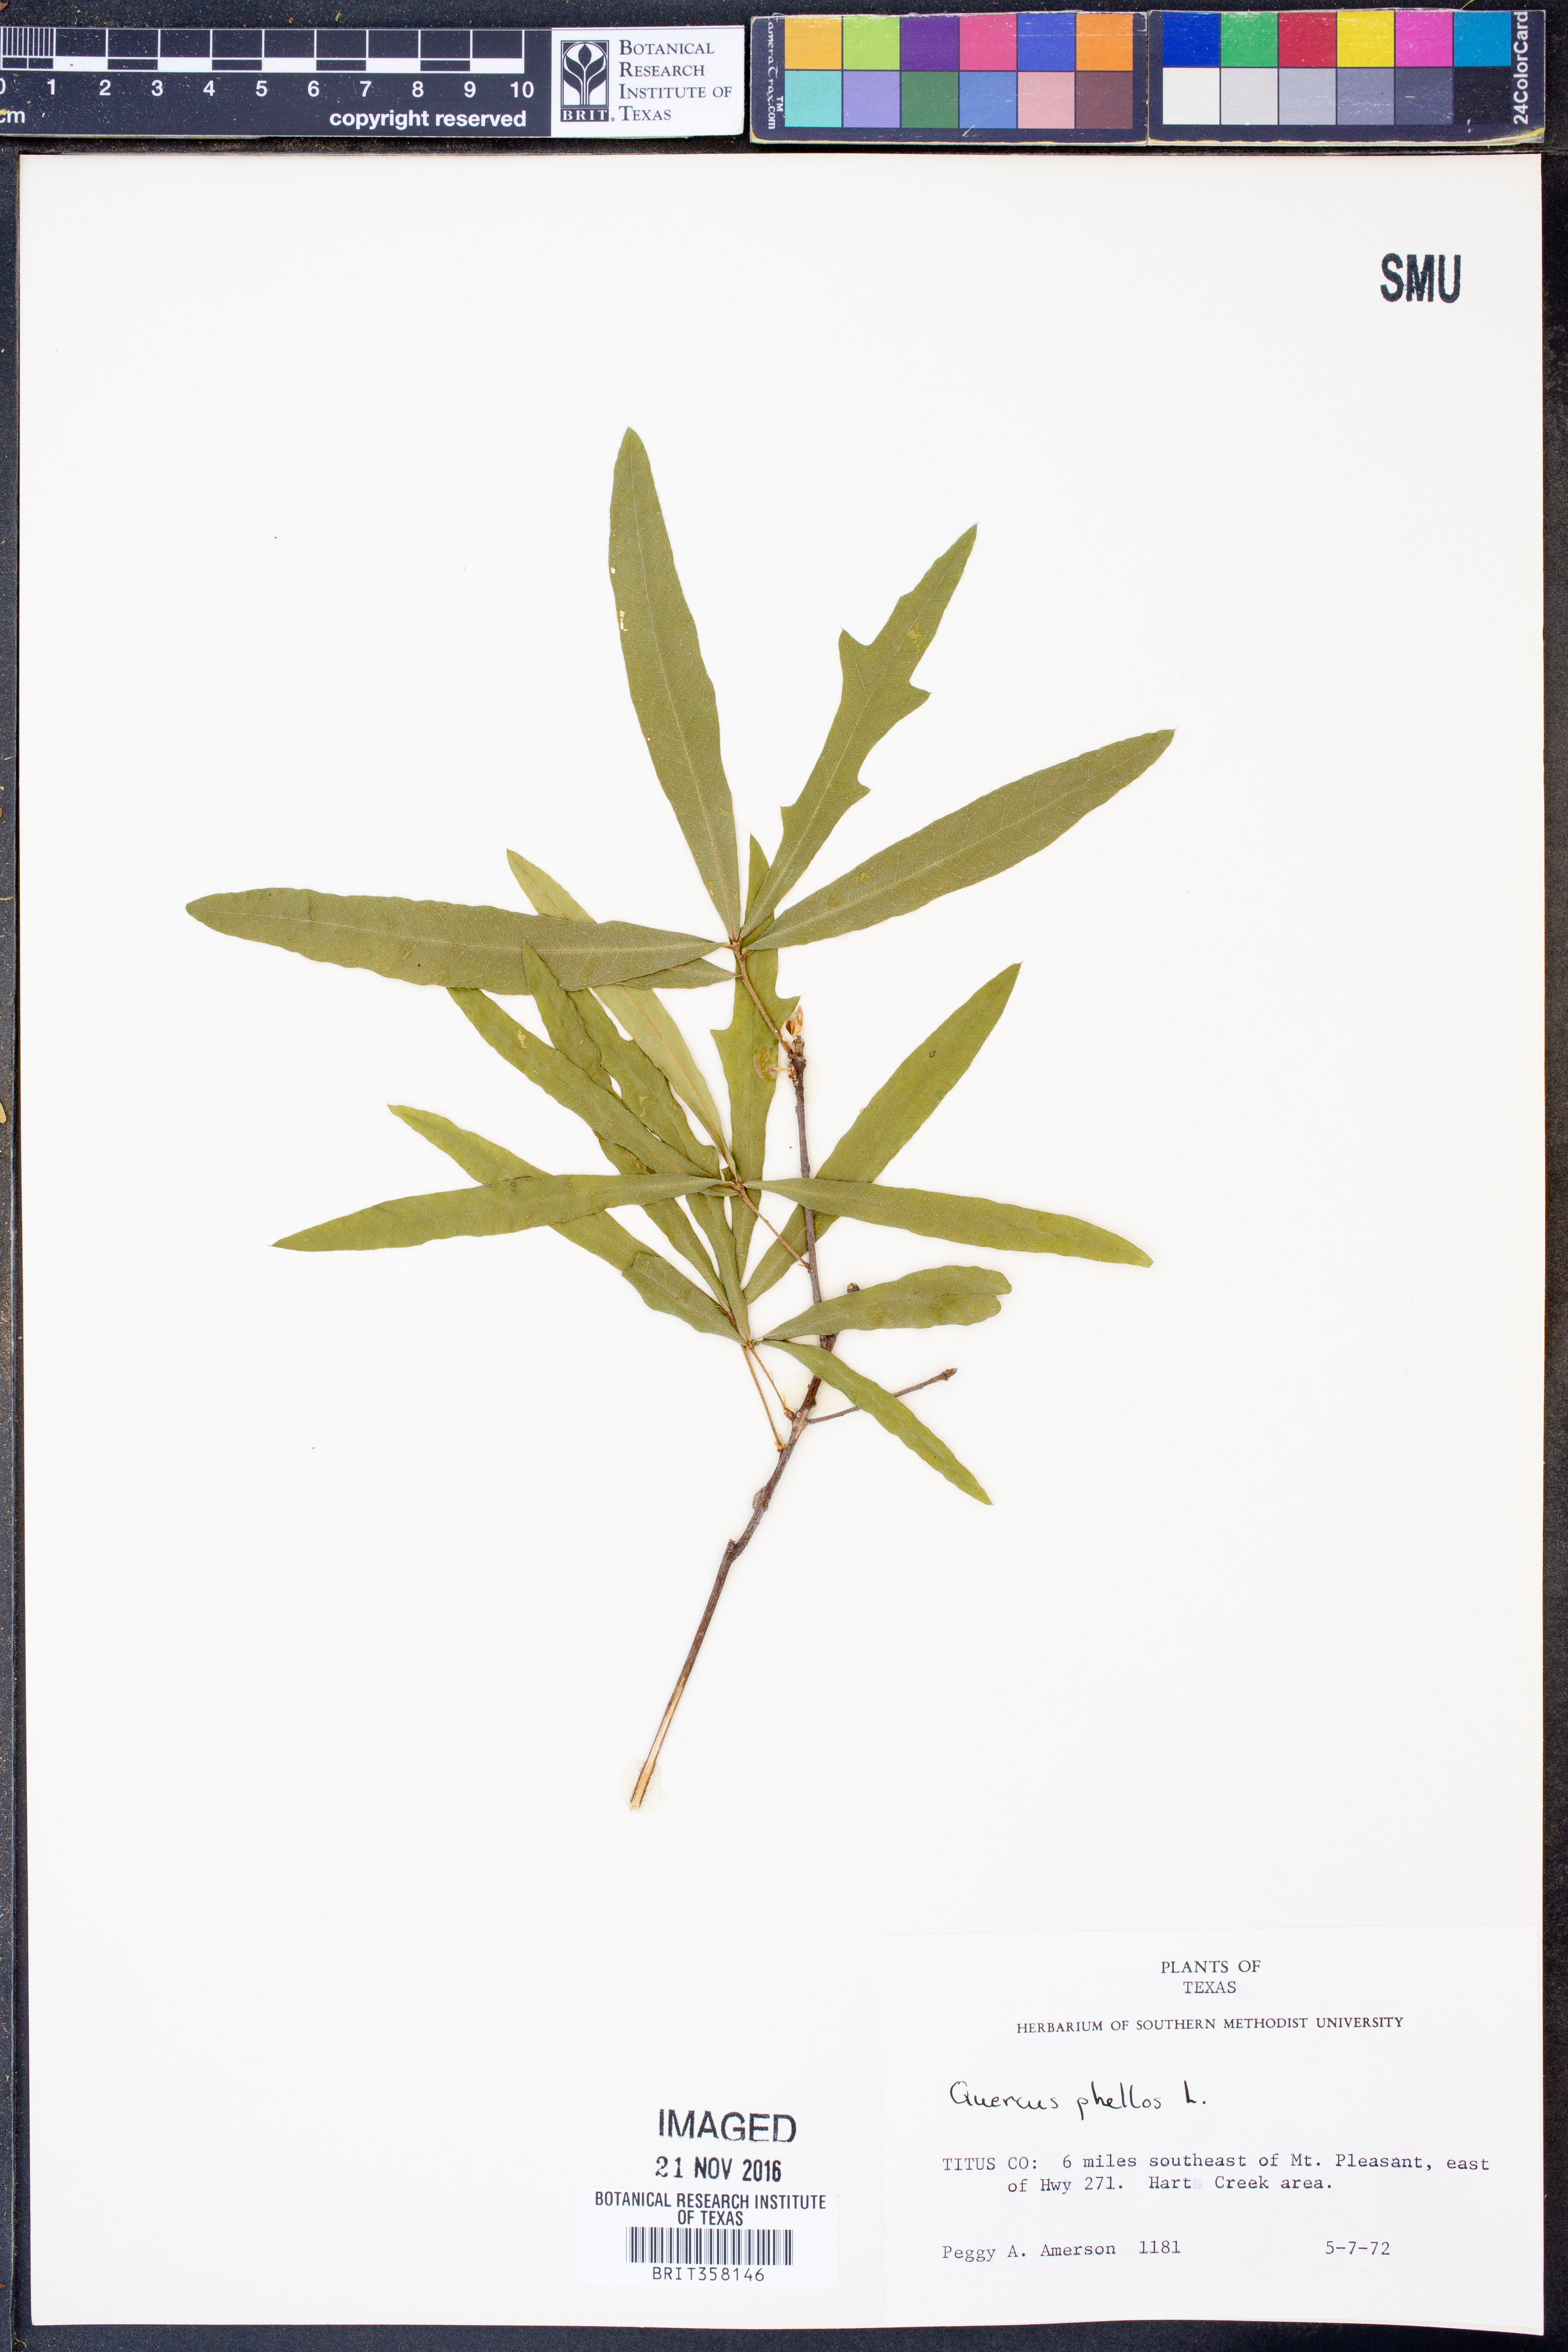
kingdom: Plantae
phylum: Tracheophyta
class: Magnoliopsida
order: Fagales
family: Fagaceae
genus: Quercus
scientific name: Quercus phellos
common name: Willow oak
